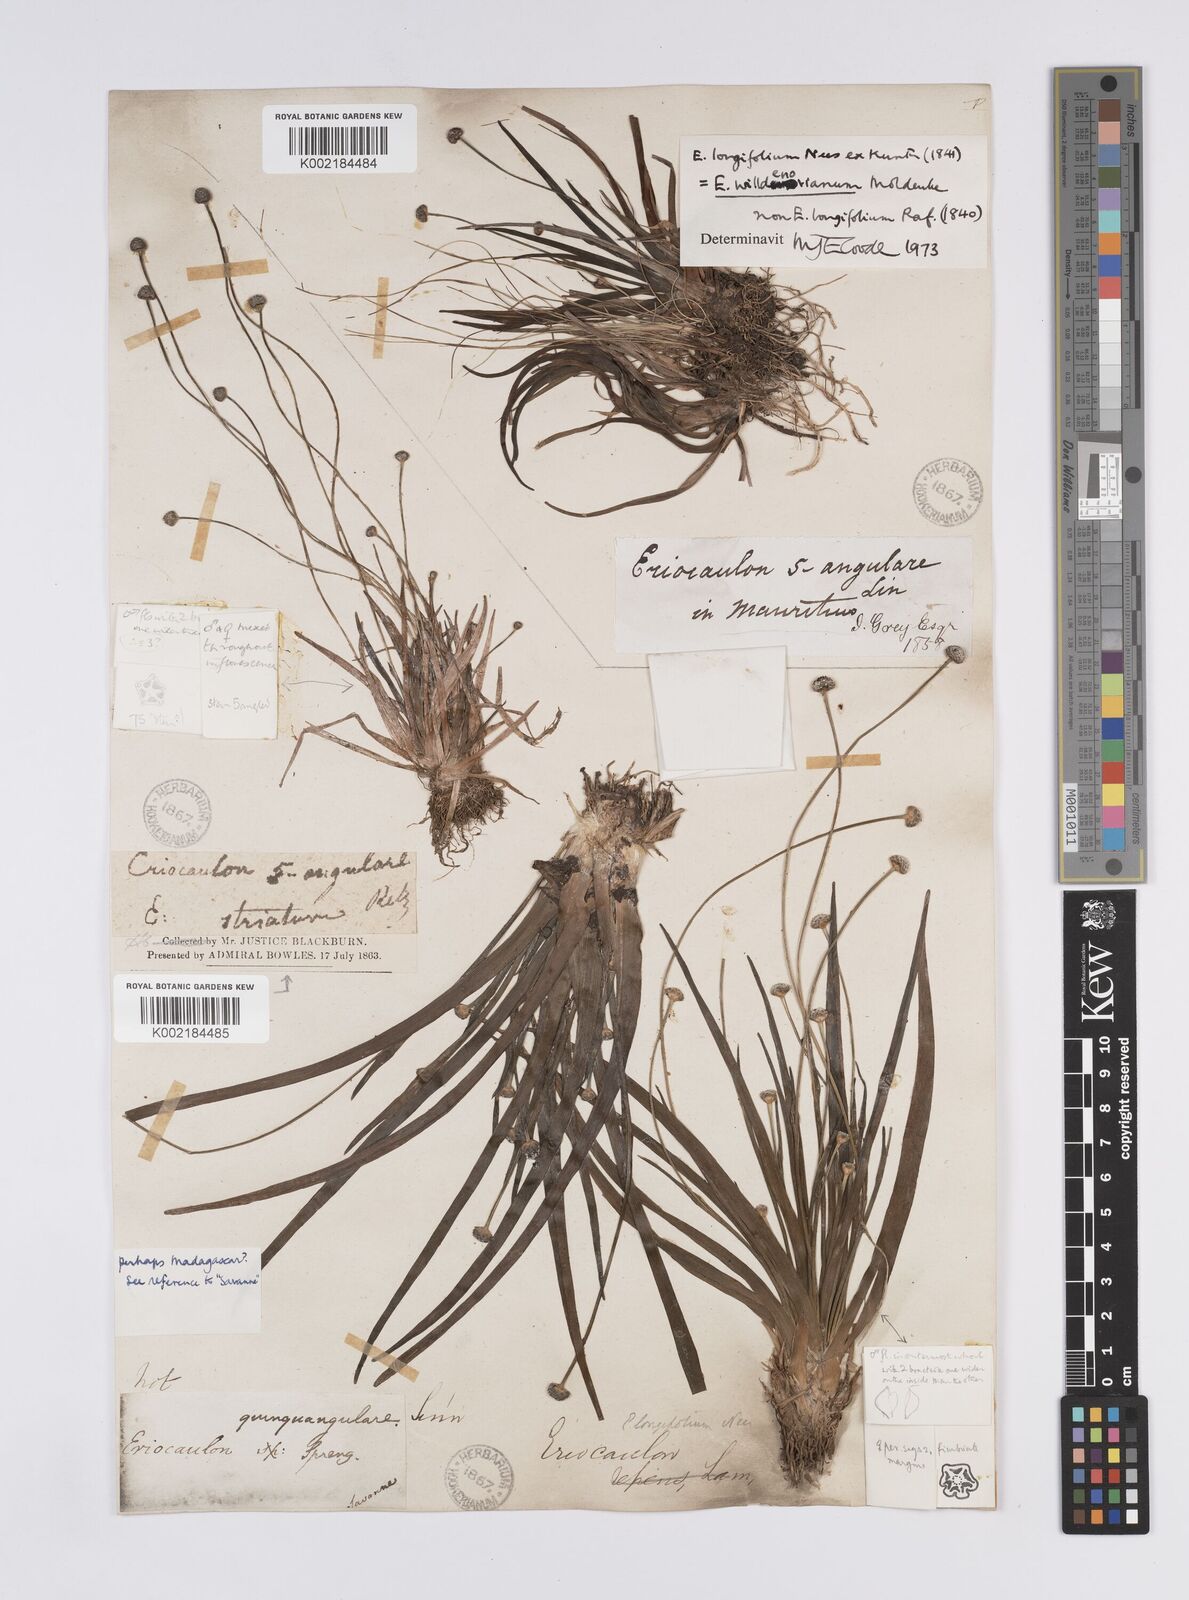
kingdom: Plantae
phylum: Tracheophyta
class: Liliopsida
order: Poales
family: Eriocaulaceae
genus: Eriocaulon
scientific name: Eriocaulon willdenovianum
